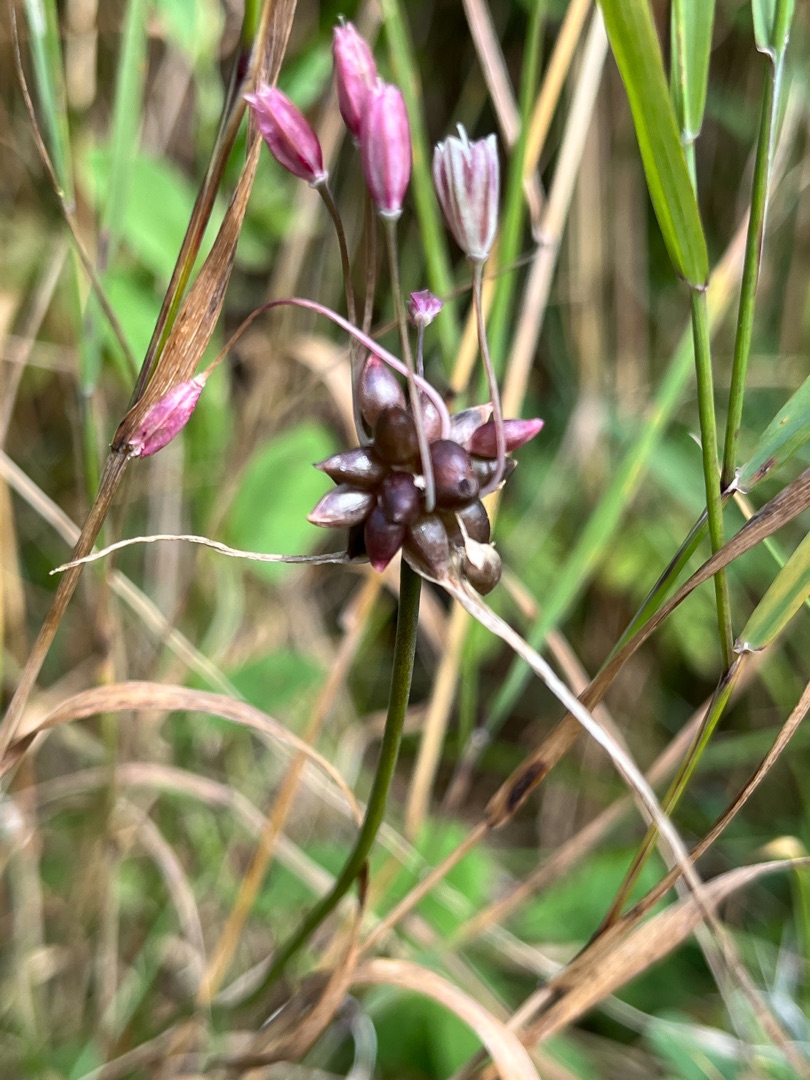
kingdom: Plantae
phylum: Tracheophyta
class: Liliopsida
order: Asparagales
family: Amaryllidaceae
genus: Allium
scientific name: Allium oleraceum
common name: Vild løg
